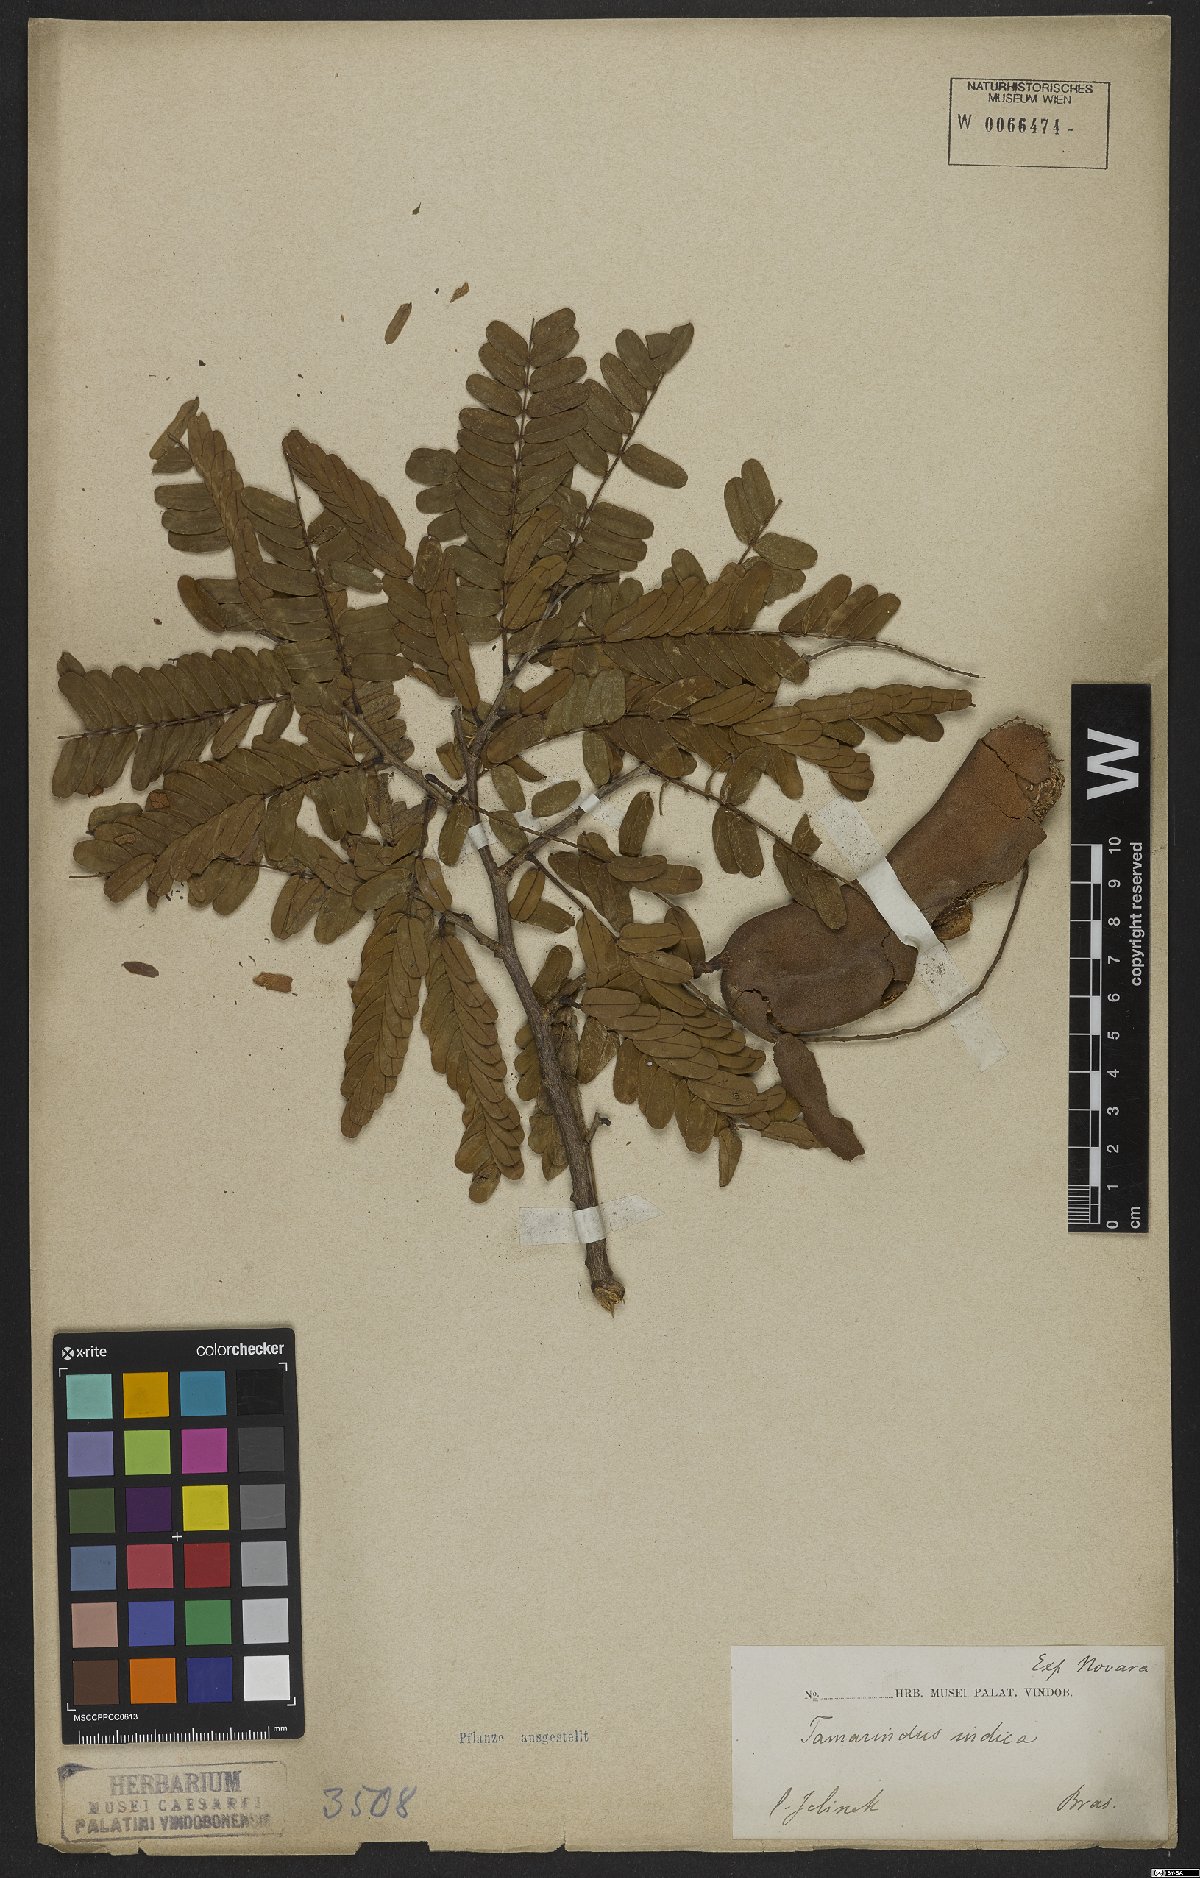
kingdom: Plantae
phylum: Tracheophyta
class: Magnoliopsida
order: Fabales
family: Fabaceae
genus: Tamarindus
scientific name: Tamarindus indica
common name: Tamarind
